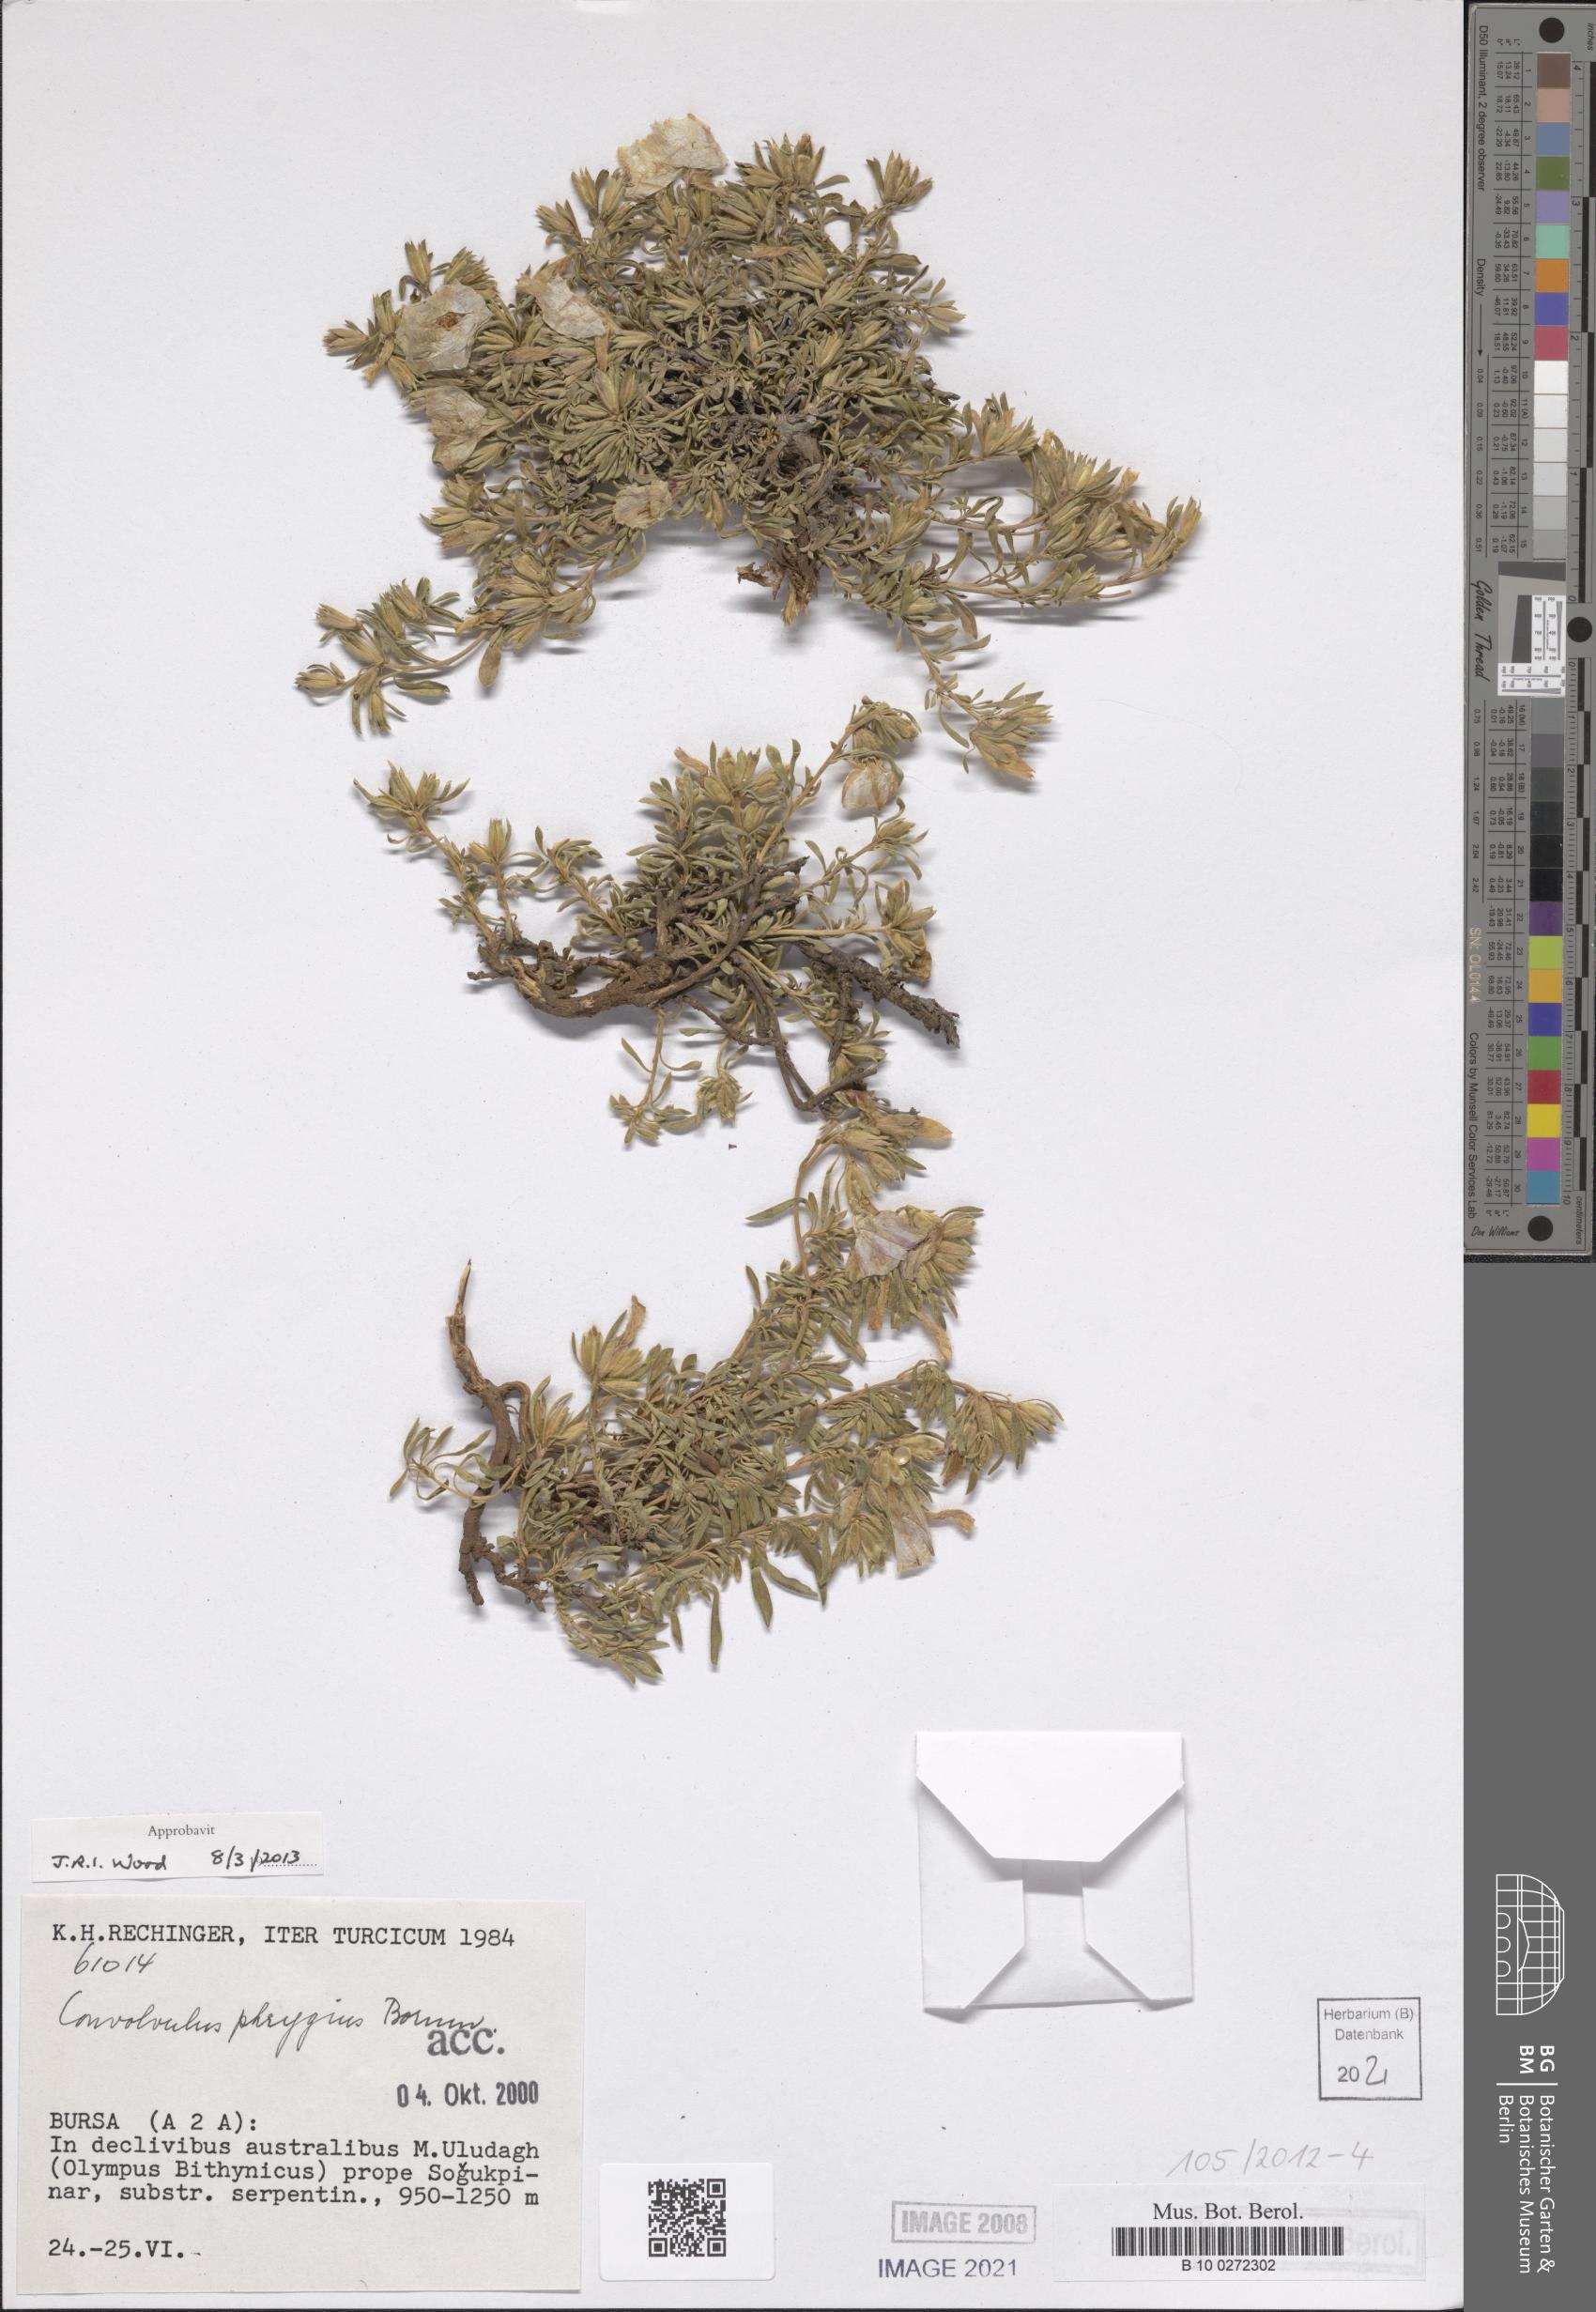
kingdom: Plantae
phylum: Tracheophyta
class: Magnoliopsida
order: Solanales
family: Convolvulaceae
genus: Convolvulus
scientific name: Convolvulus phrygius
